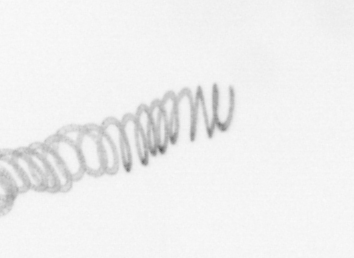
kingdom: Chromista
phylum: Ochrophyta
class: Bacillariophyceae
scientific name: Bacillariophyceae
